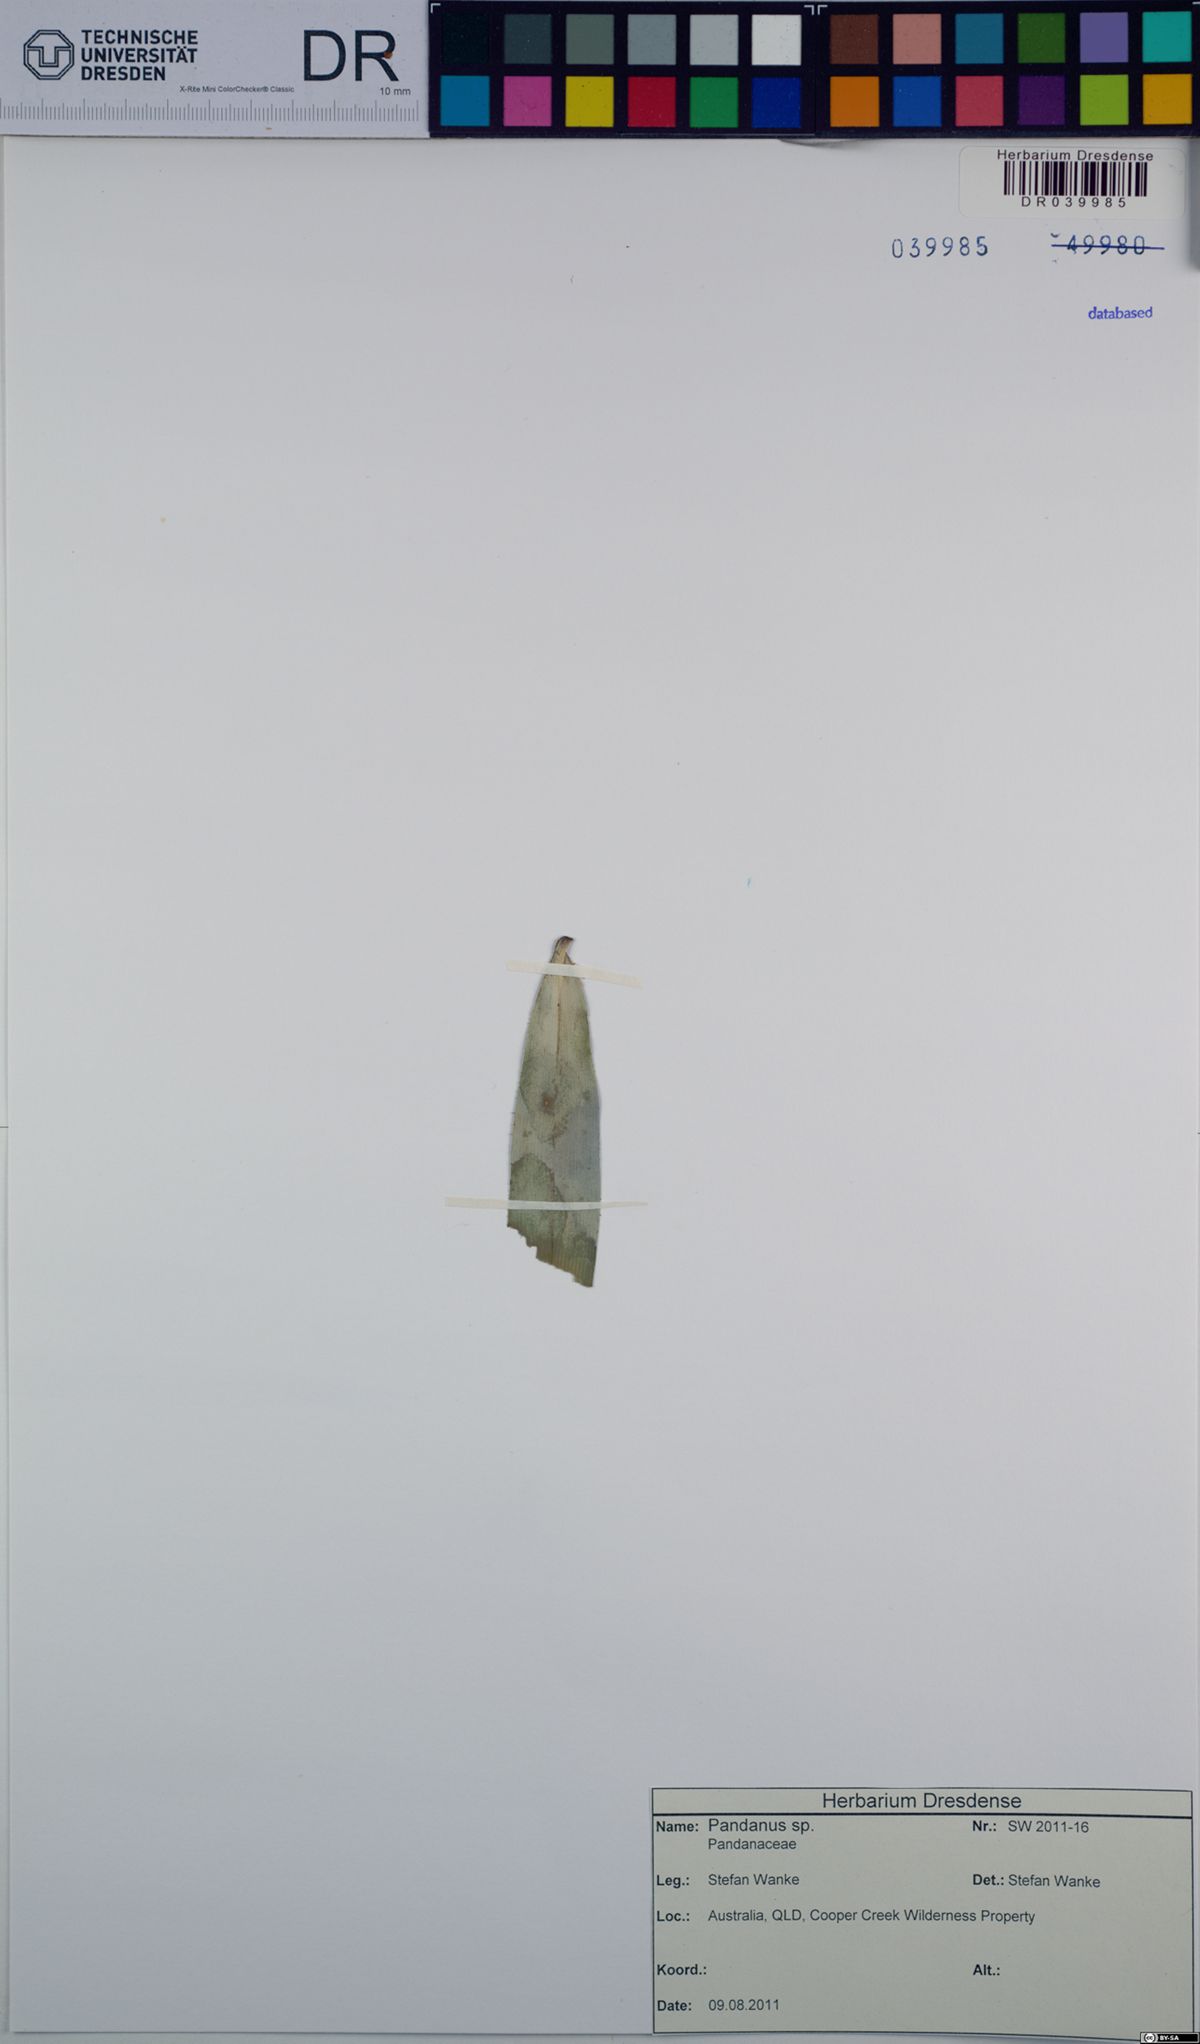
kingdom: Plantae
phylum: Tracheophyta
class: Liliopsida
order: Pandanales
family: Pandanaceae
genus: Pandanus
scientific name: Pandanus
